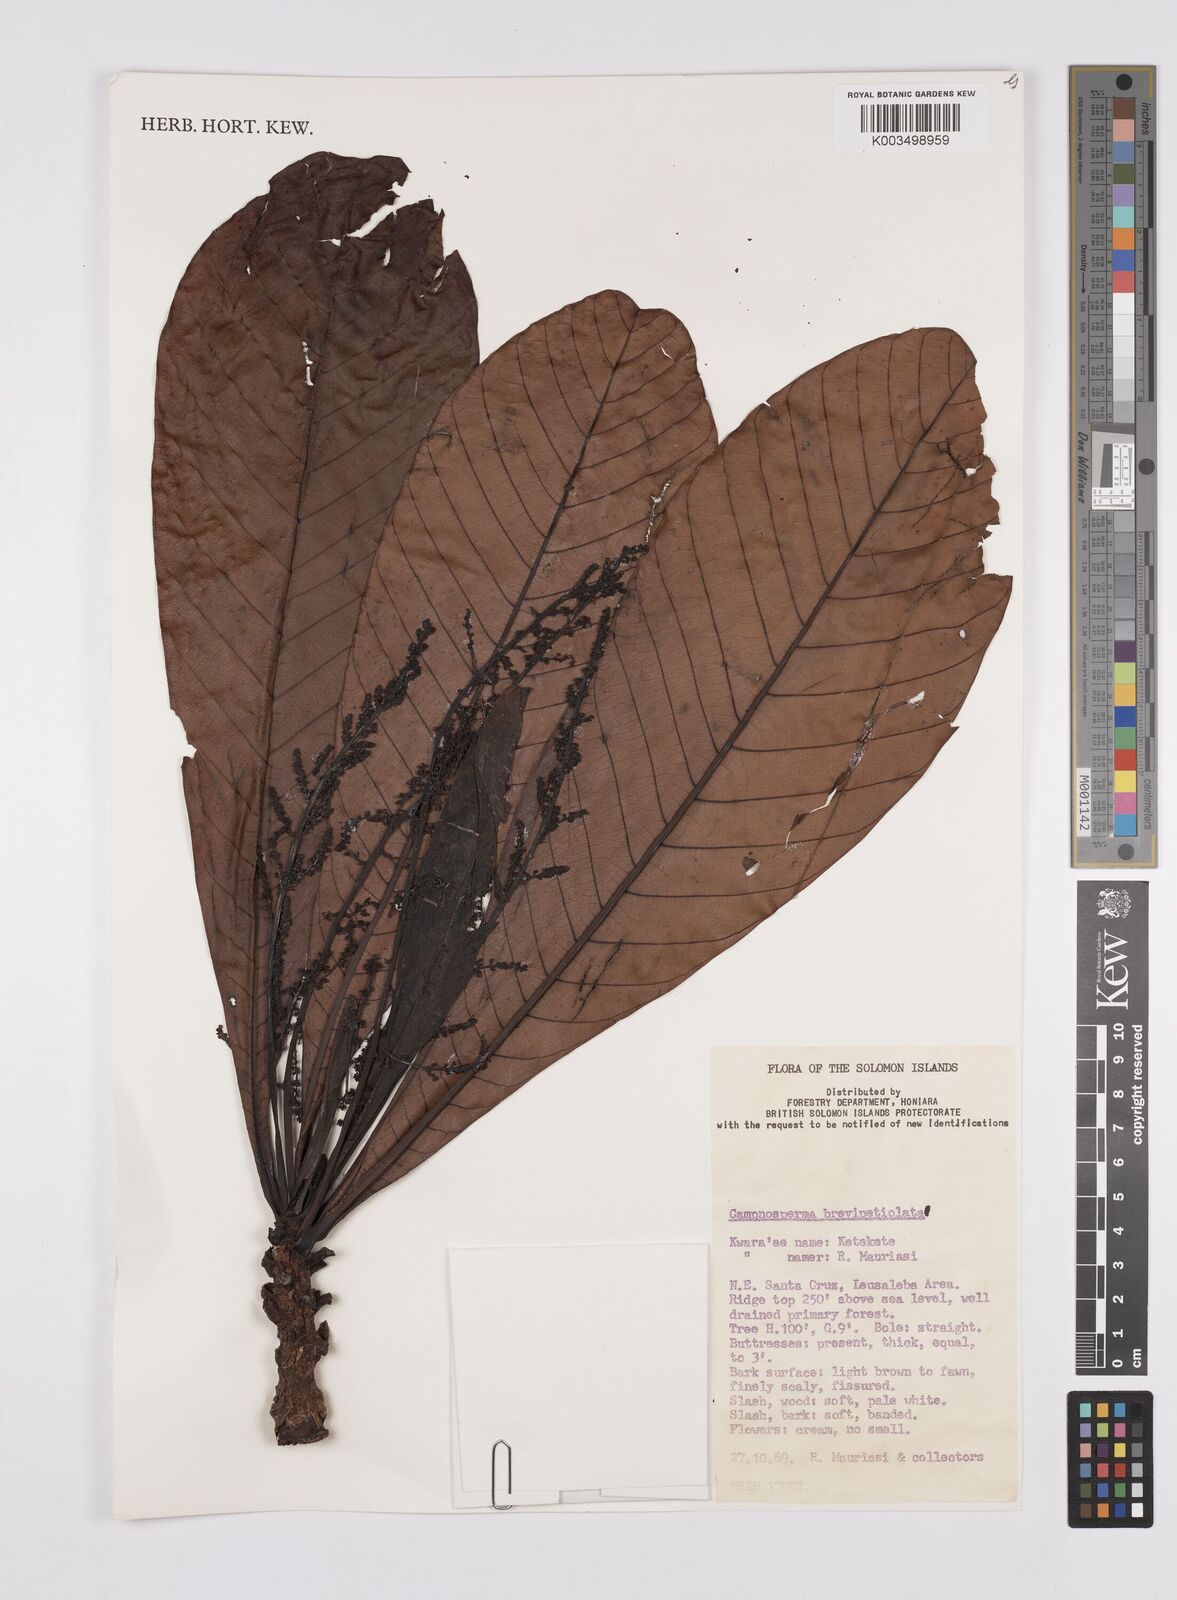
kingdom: Plantae
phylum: Tracheophyta
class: Magnoliopsida
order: Sapindales
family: Anacardiaceae
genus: Campnosperma
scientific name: Campnosperma brevipetiolatum
